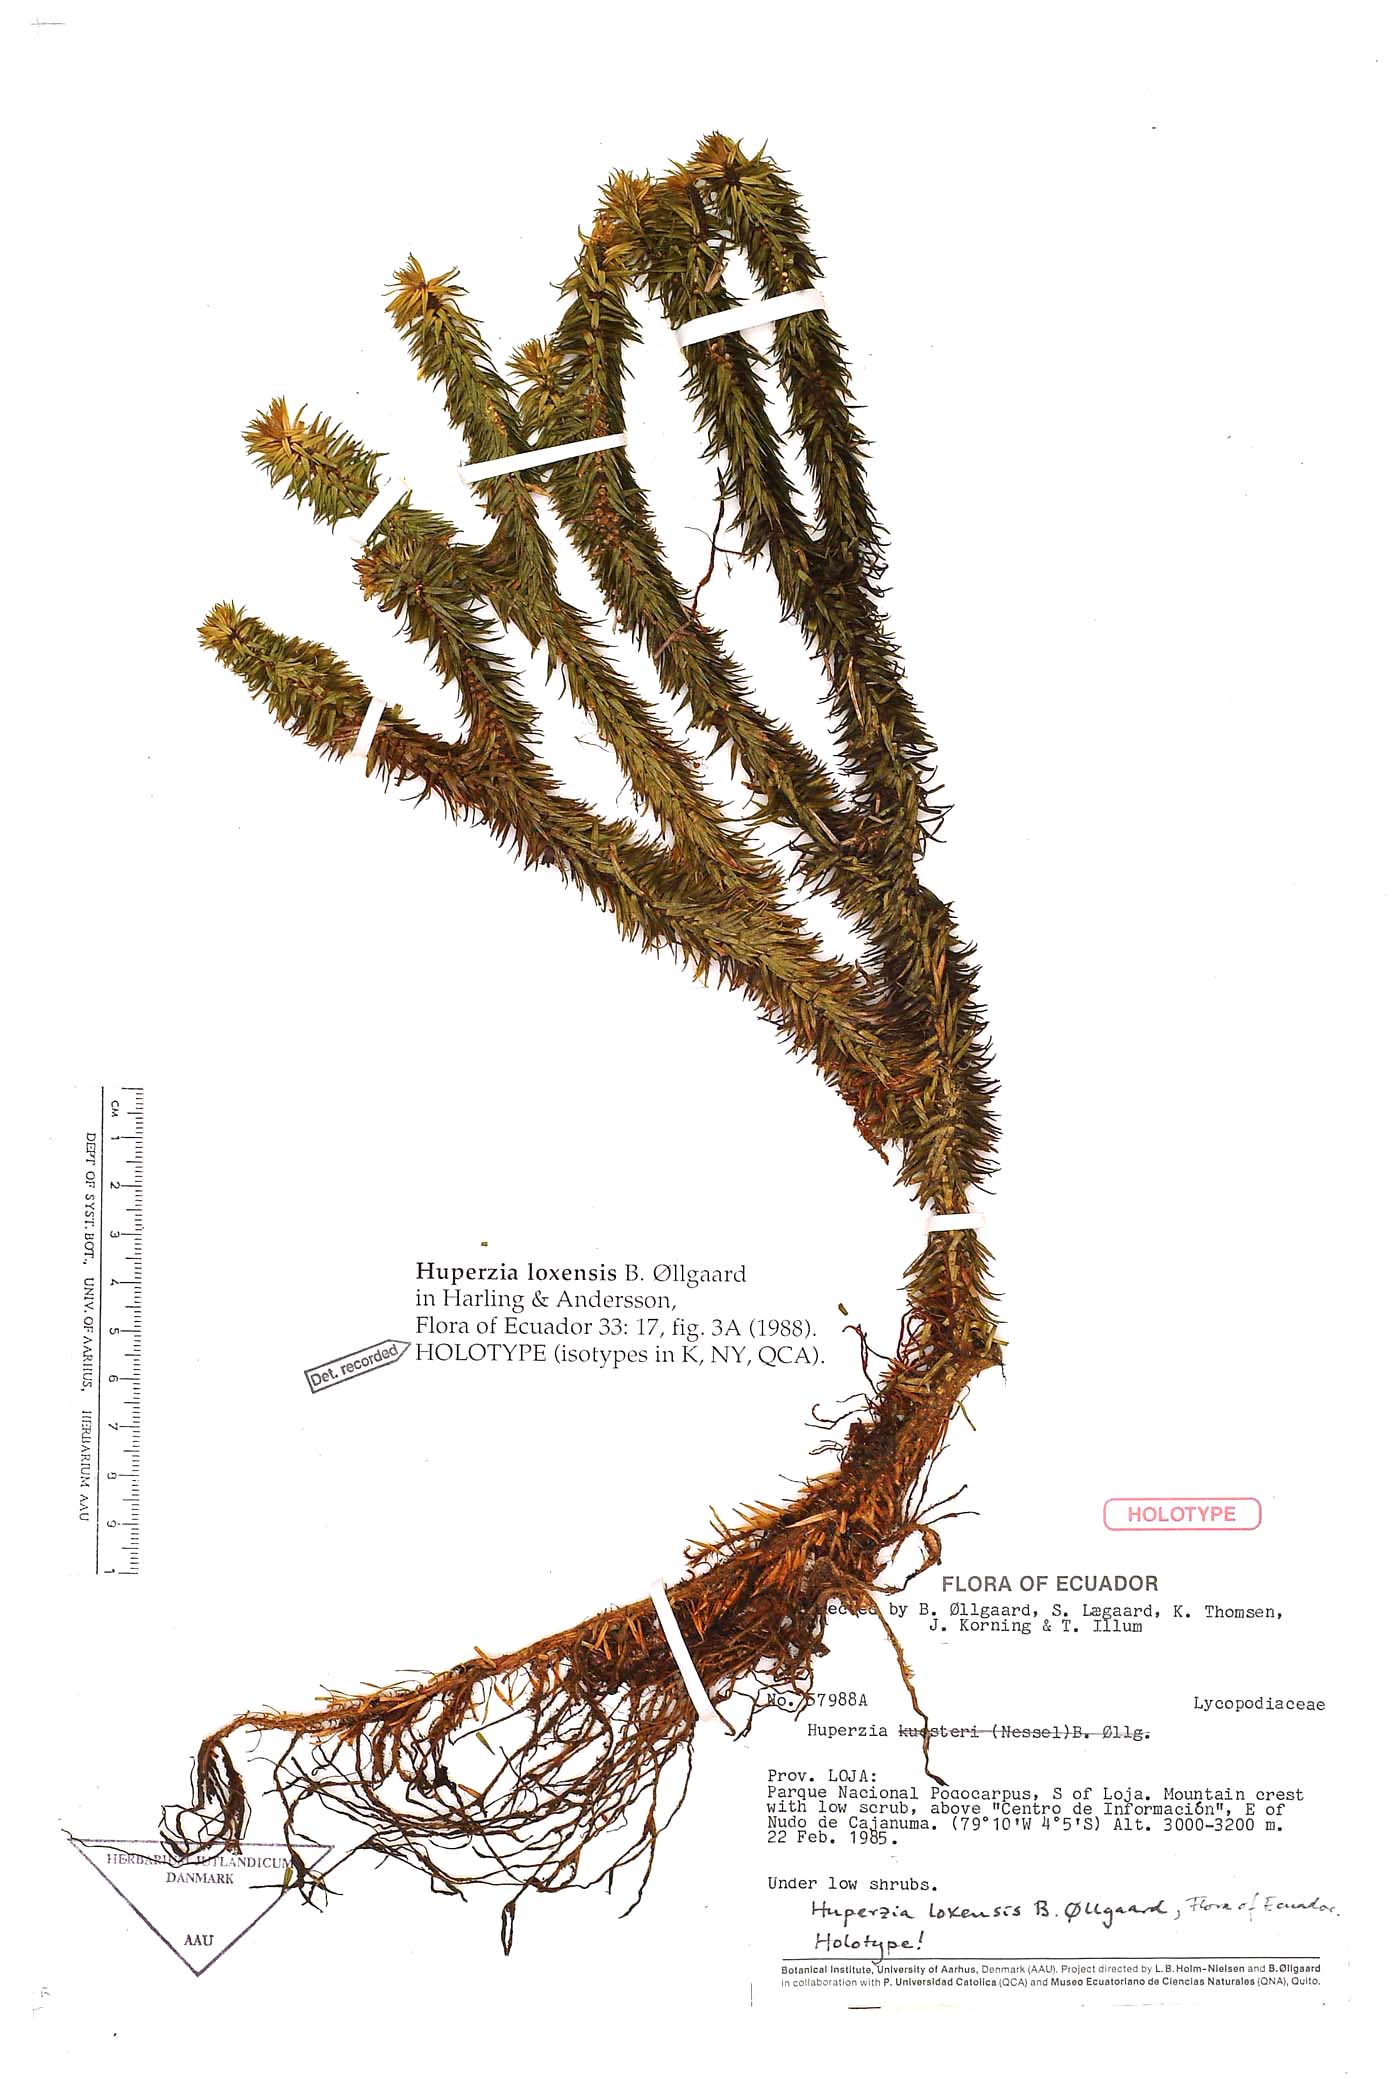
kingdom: Plantae
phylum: Tracheophyta
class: Lycopodiopsida
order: Lycopodiales
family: Lycopodiaceae
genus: Phlegmariurus
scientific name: Phlegmariurus loxensis
